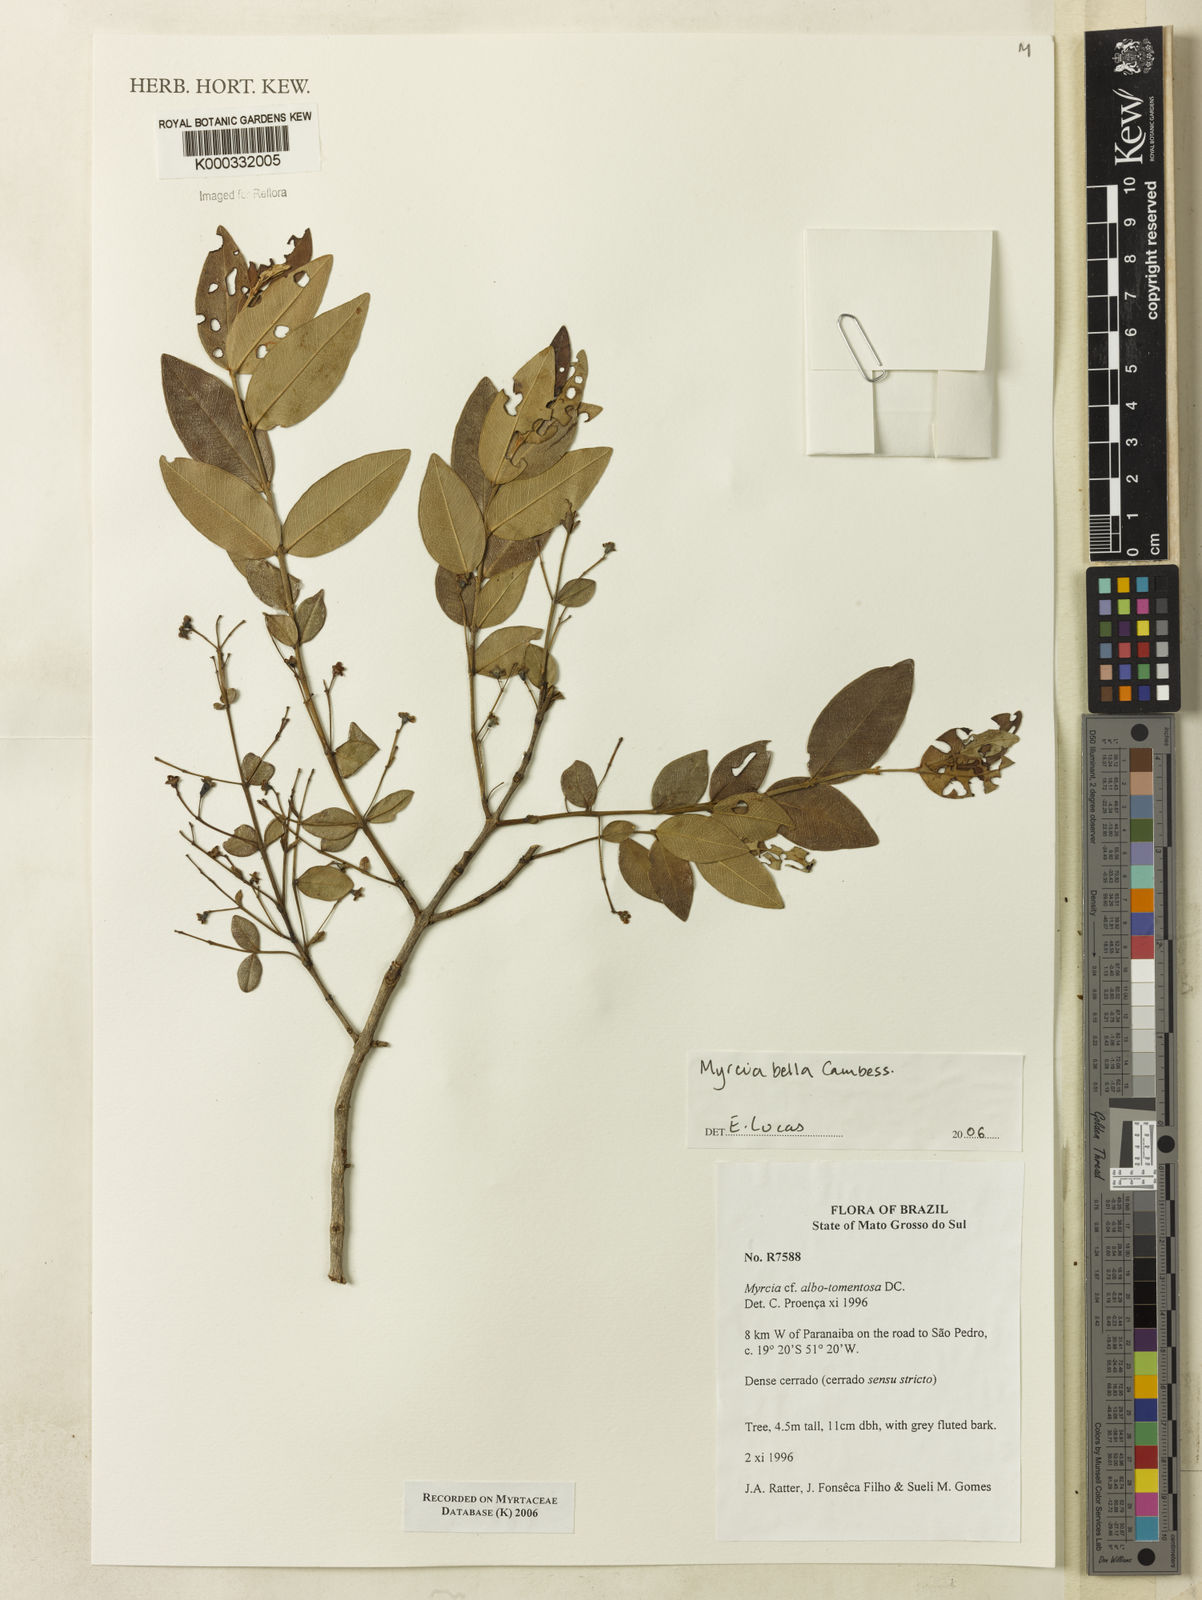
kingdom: Plantae
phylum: Tracheophyta
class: Magnoliopsida
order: Myrtales
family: Myrtaceae
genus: Myrcia
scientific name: Myrcia
